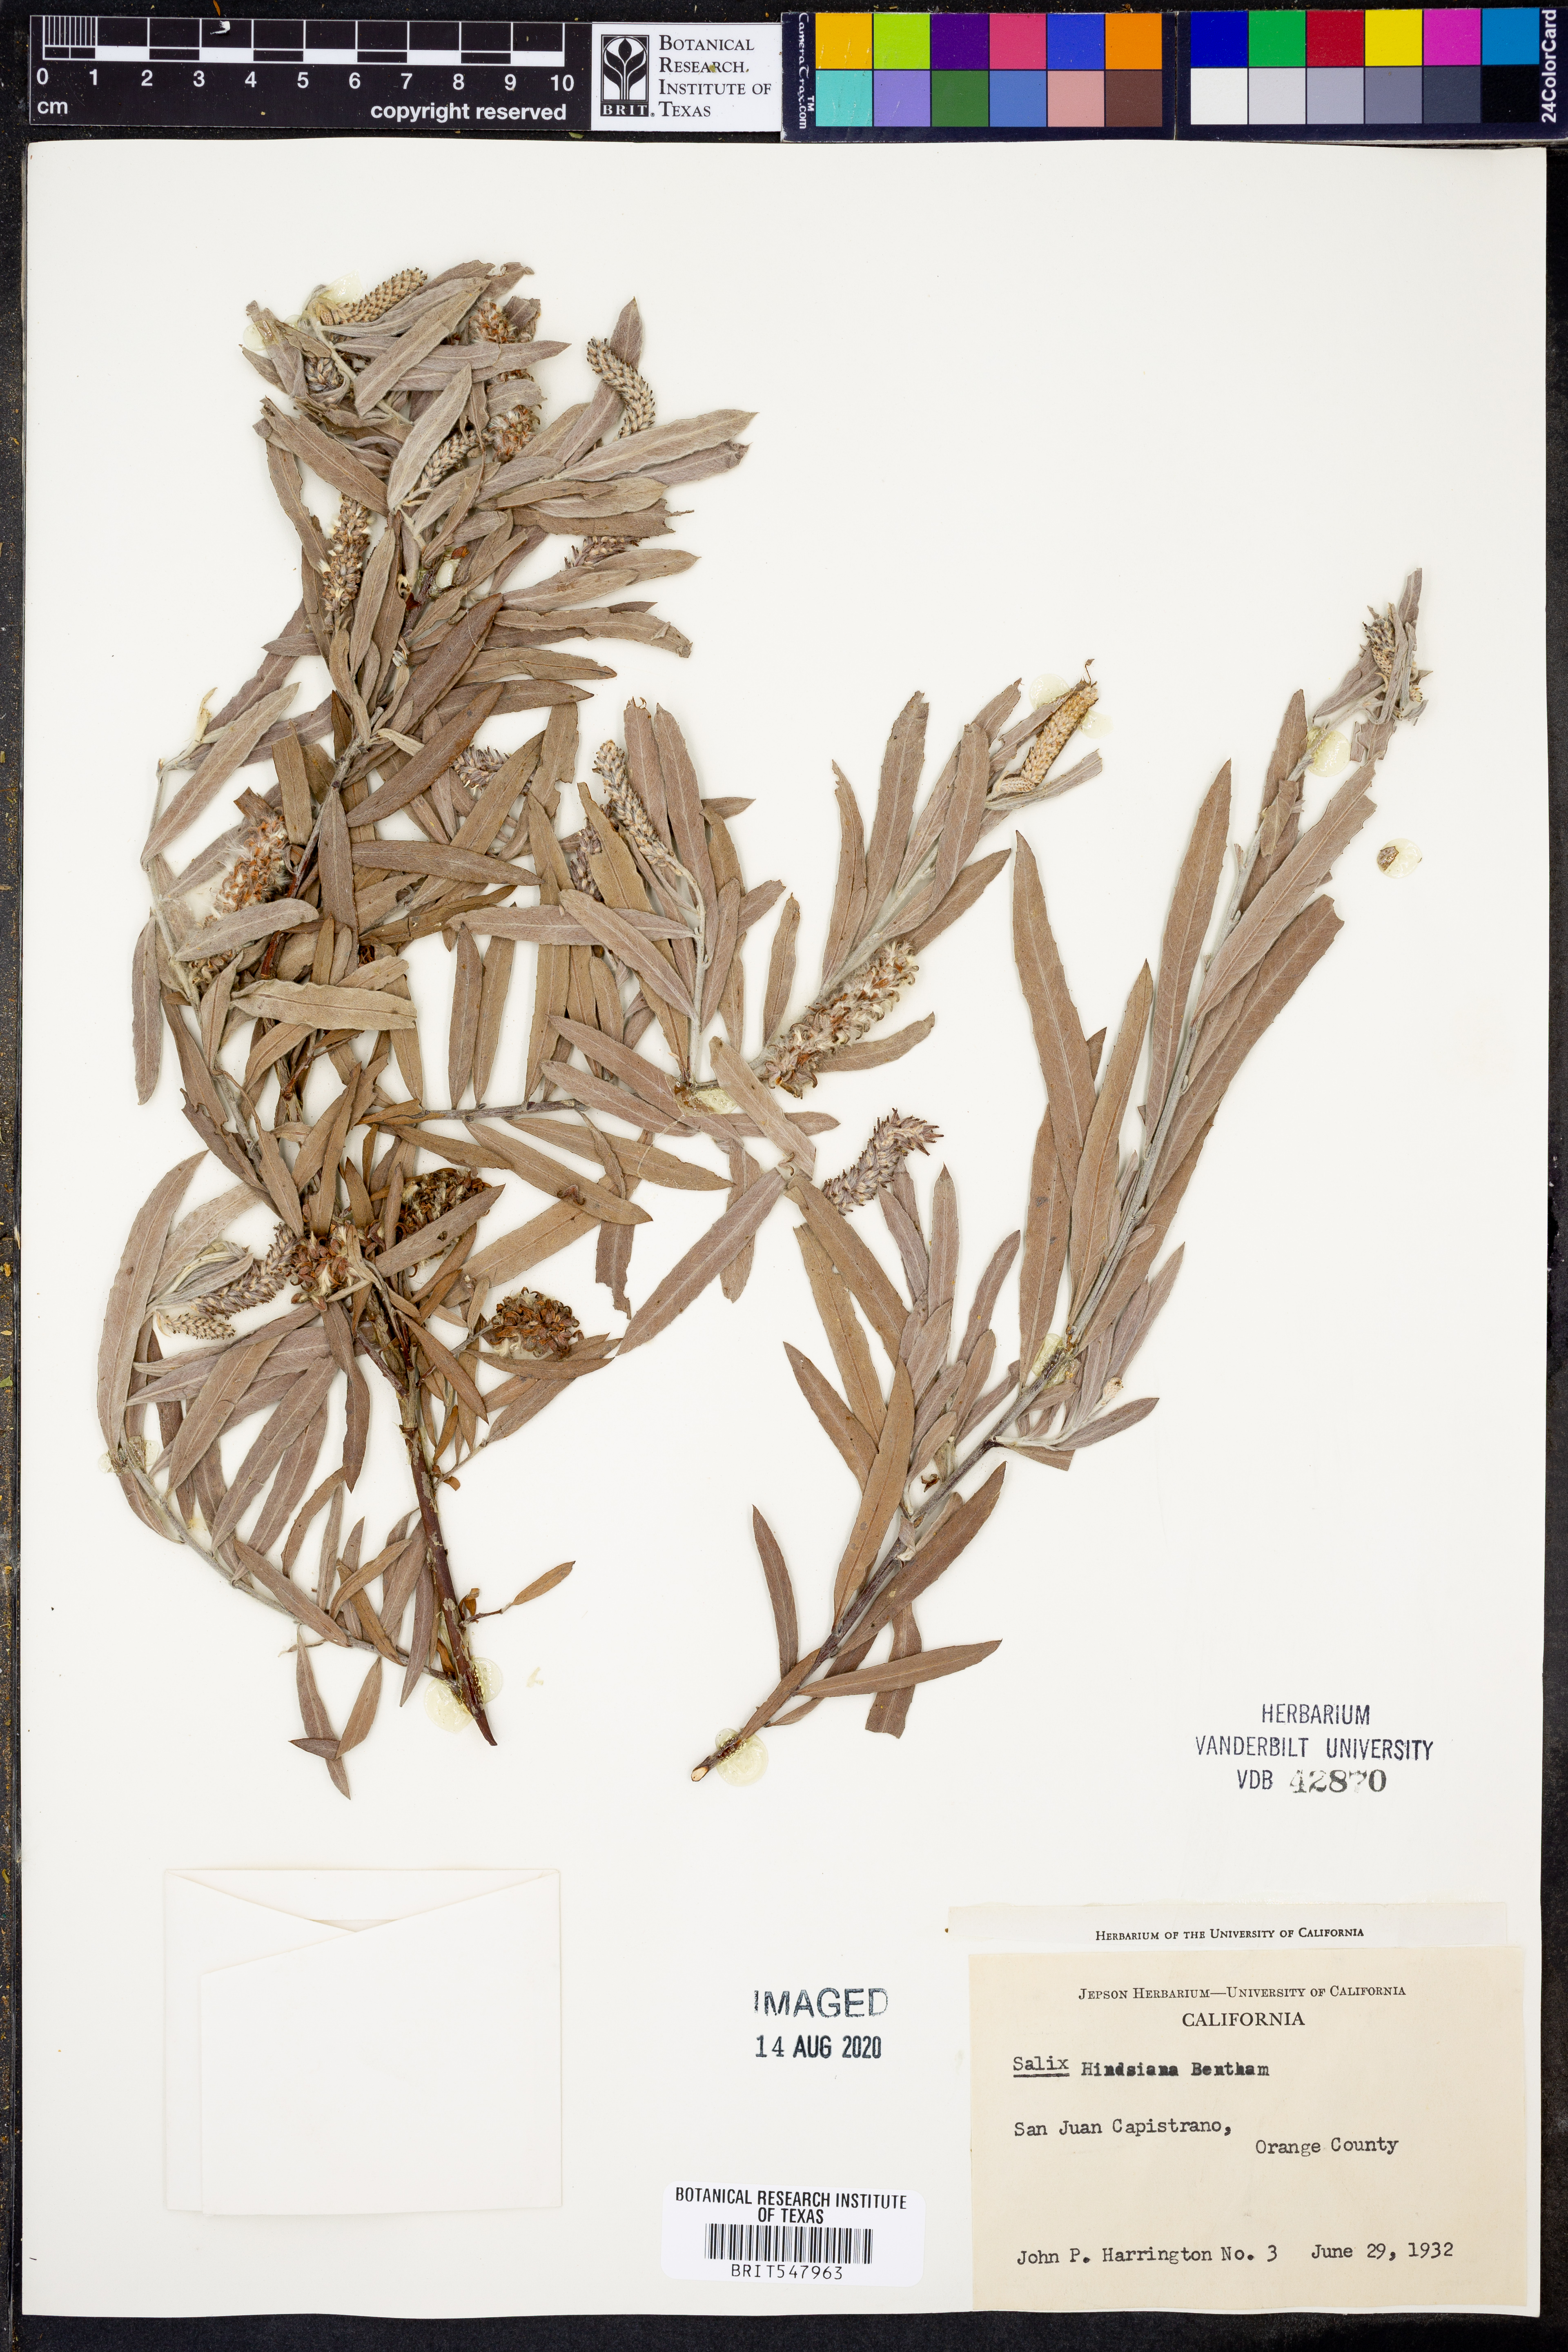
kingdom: Plantae
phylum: Tracheophyta
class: Magnoliopsida
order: Malpighiales
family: Salicaceae
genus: Salix
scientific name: Salix exigua
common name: Coyote willow
